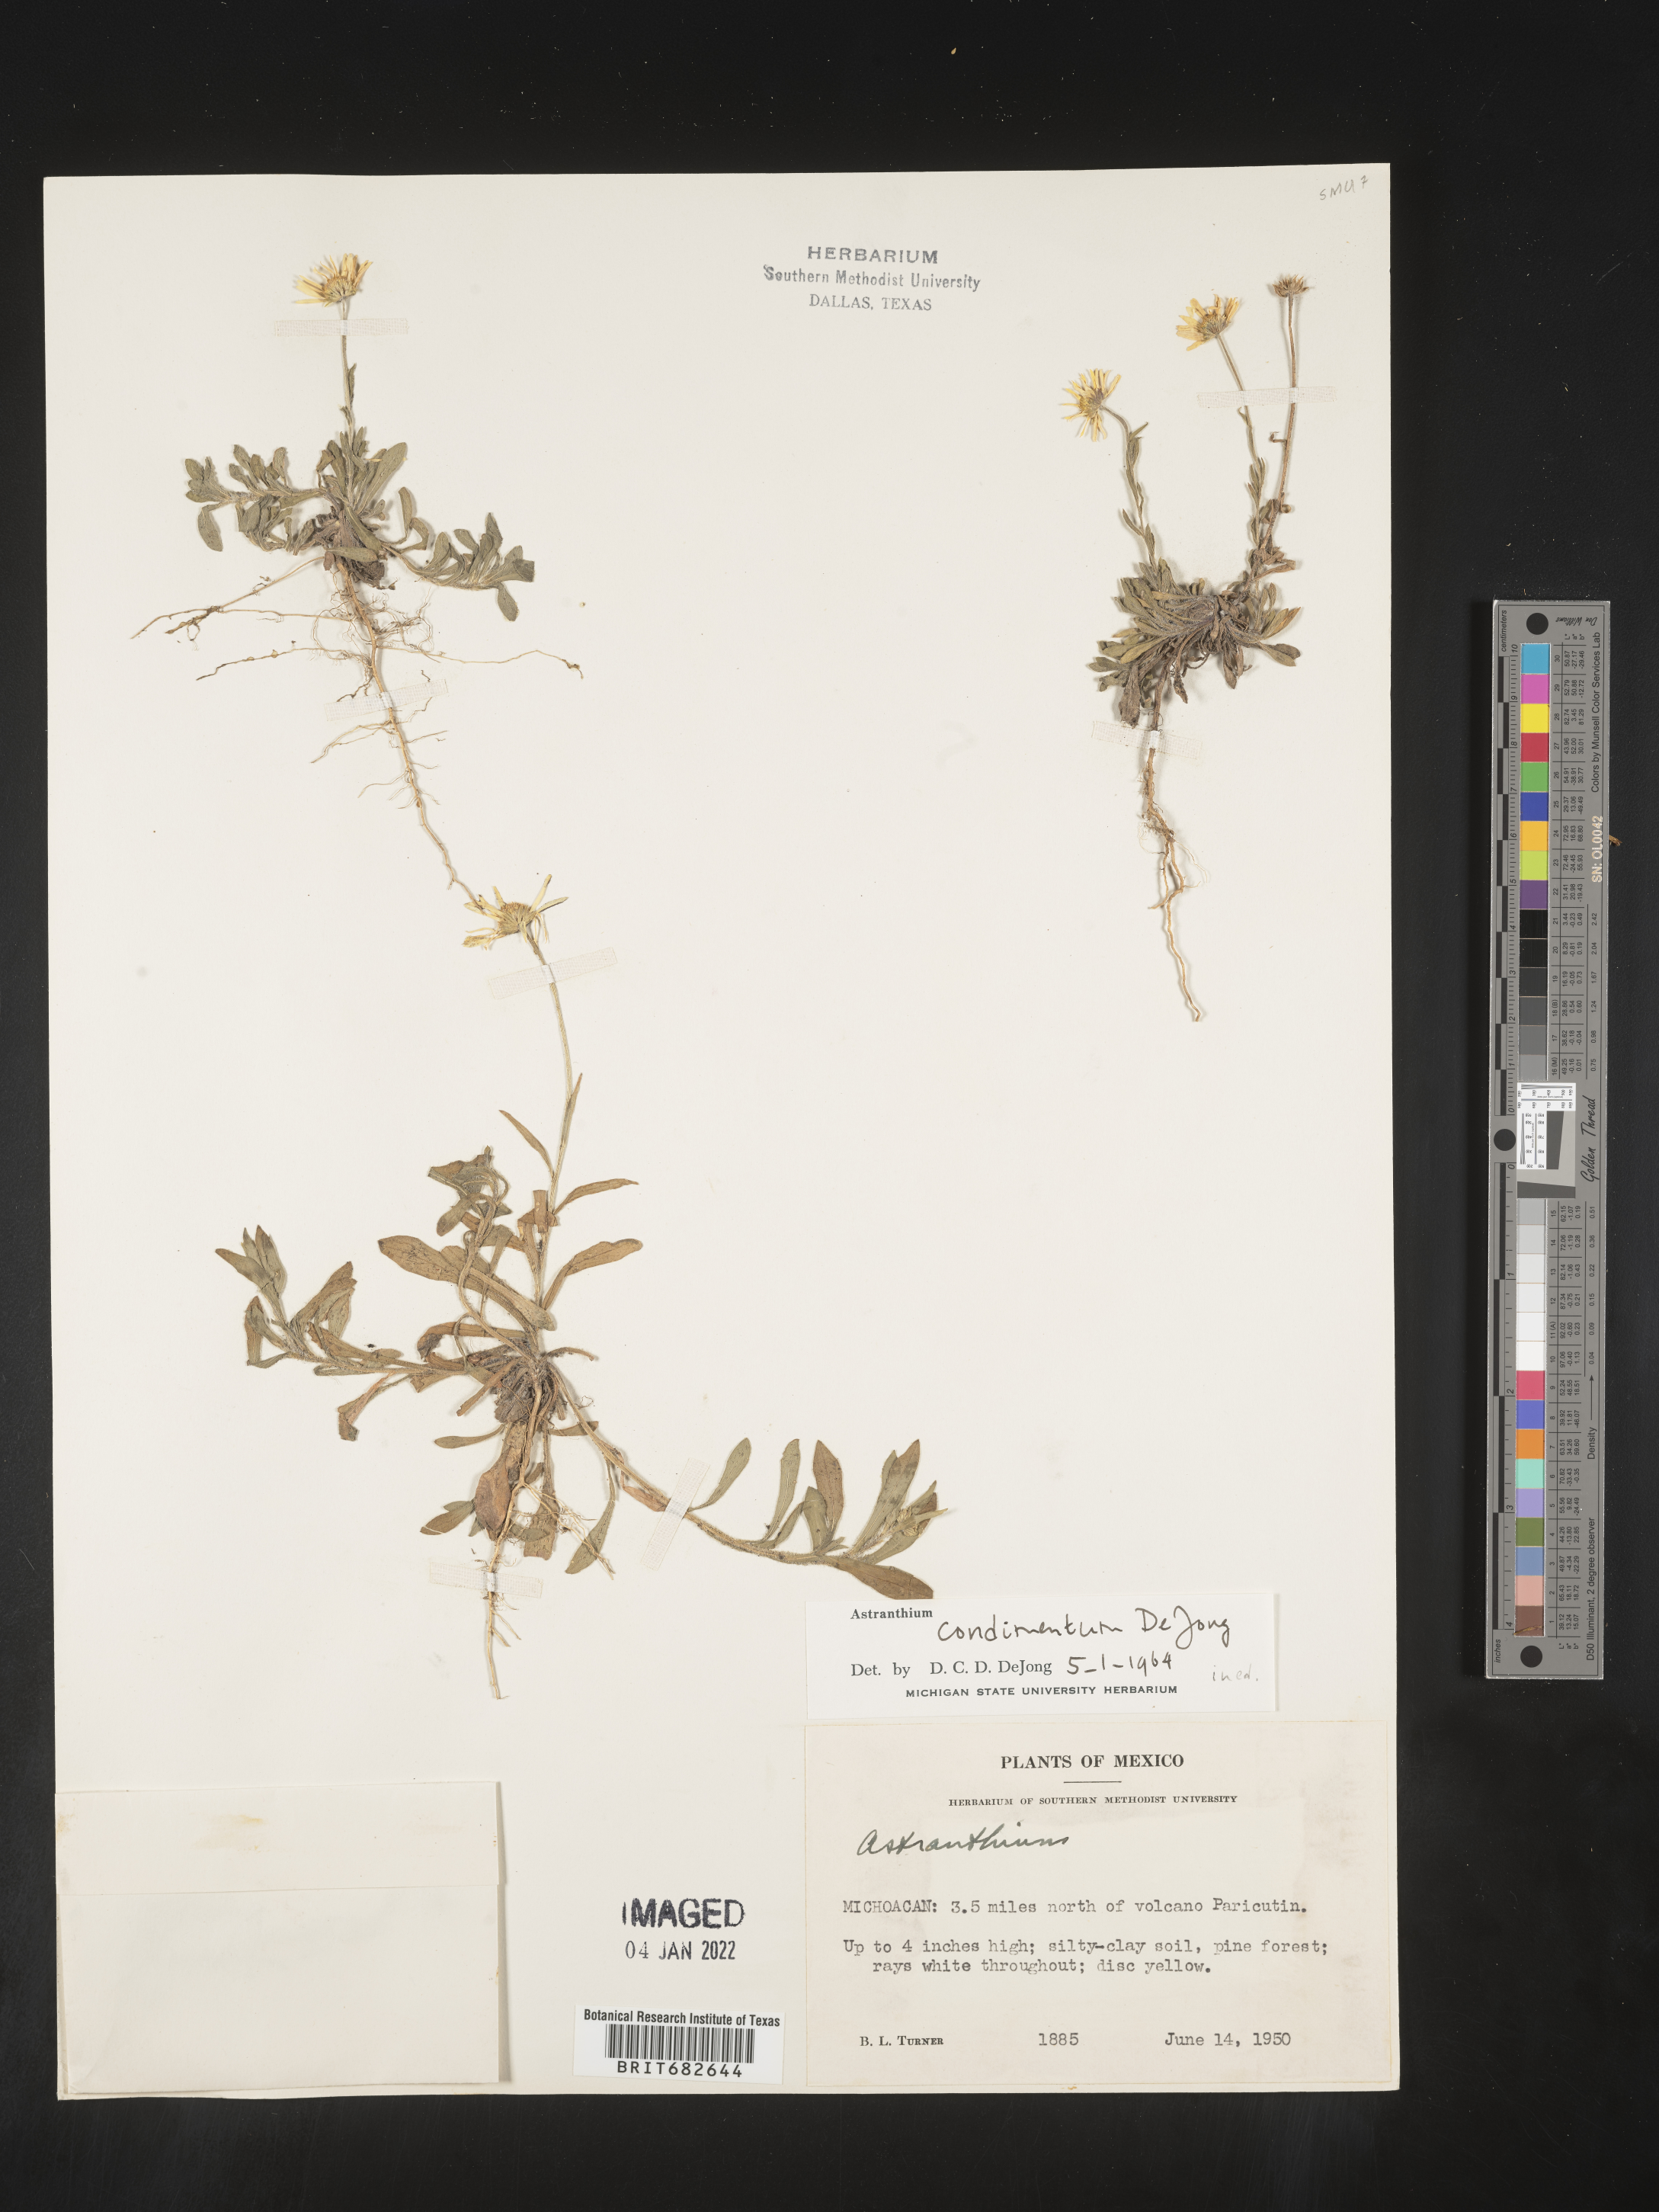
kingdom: Plantae
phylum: Tracheophyta
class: Magnoliopsida
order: Asterales
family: Asteraceae
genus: Astranthium
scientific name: Astranthium
